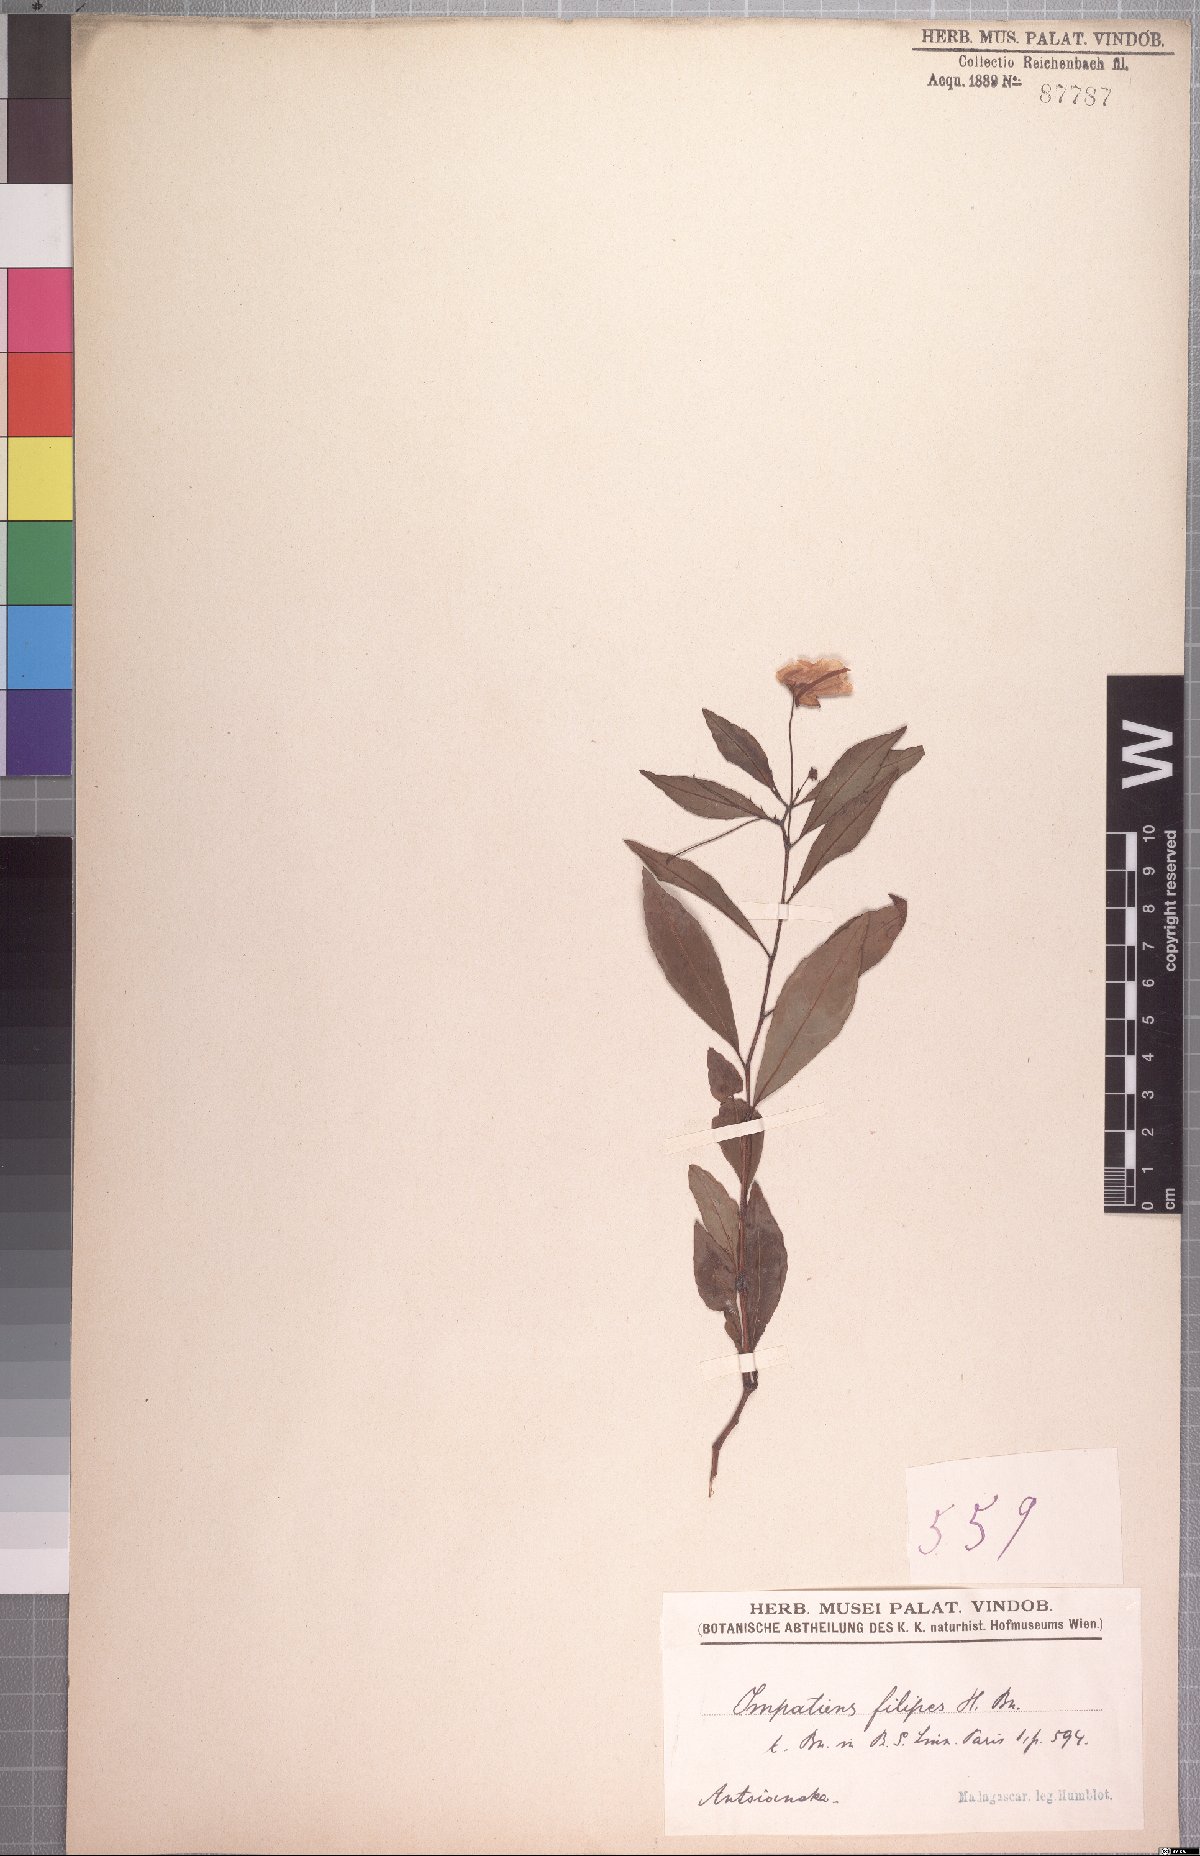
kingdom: Plantae
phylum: Tracheophyta
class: Magnoliopsida
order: Ericales
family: Balsaminaceae
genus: Impatiens
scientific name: Impatiens firmula
